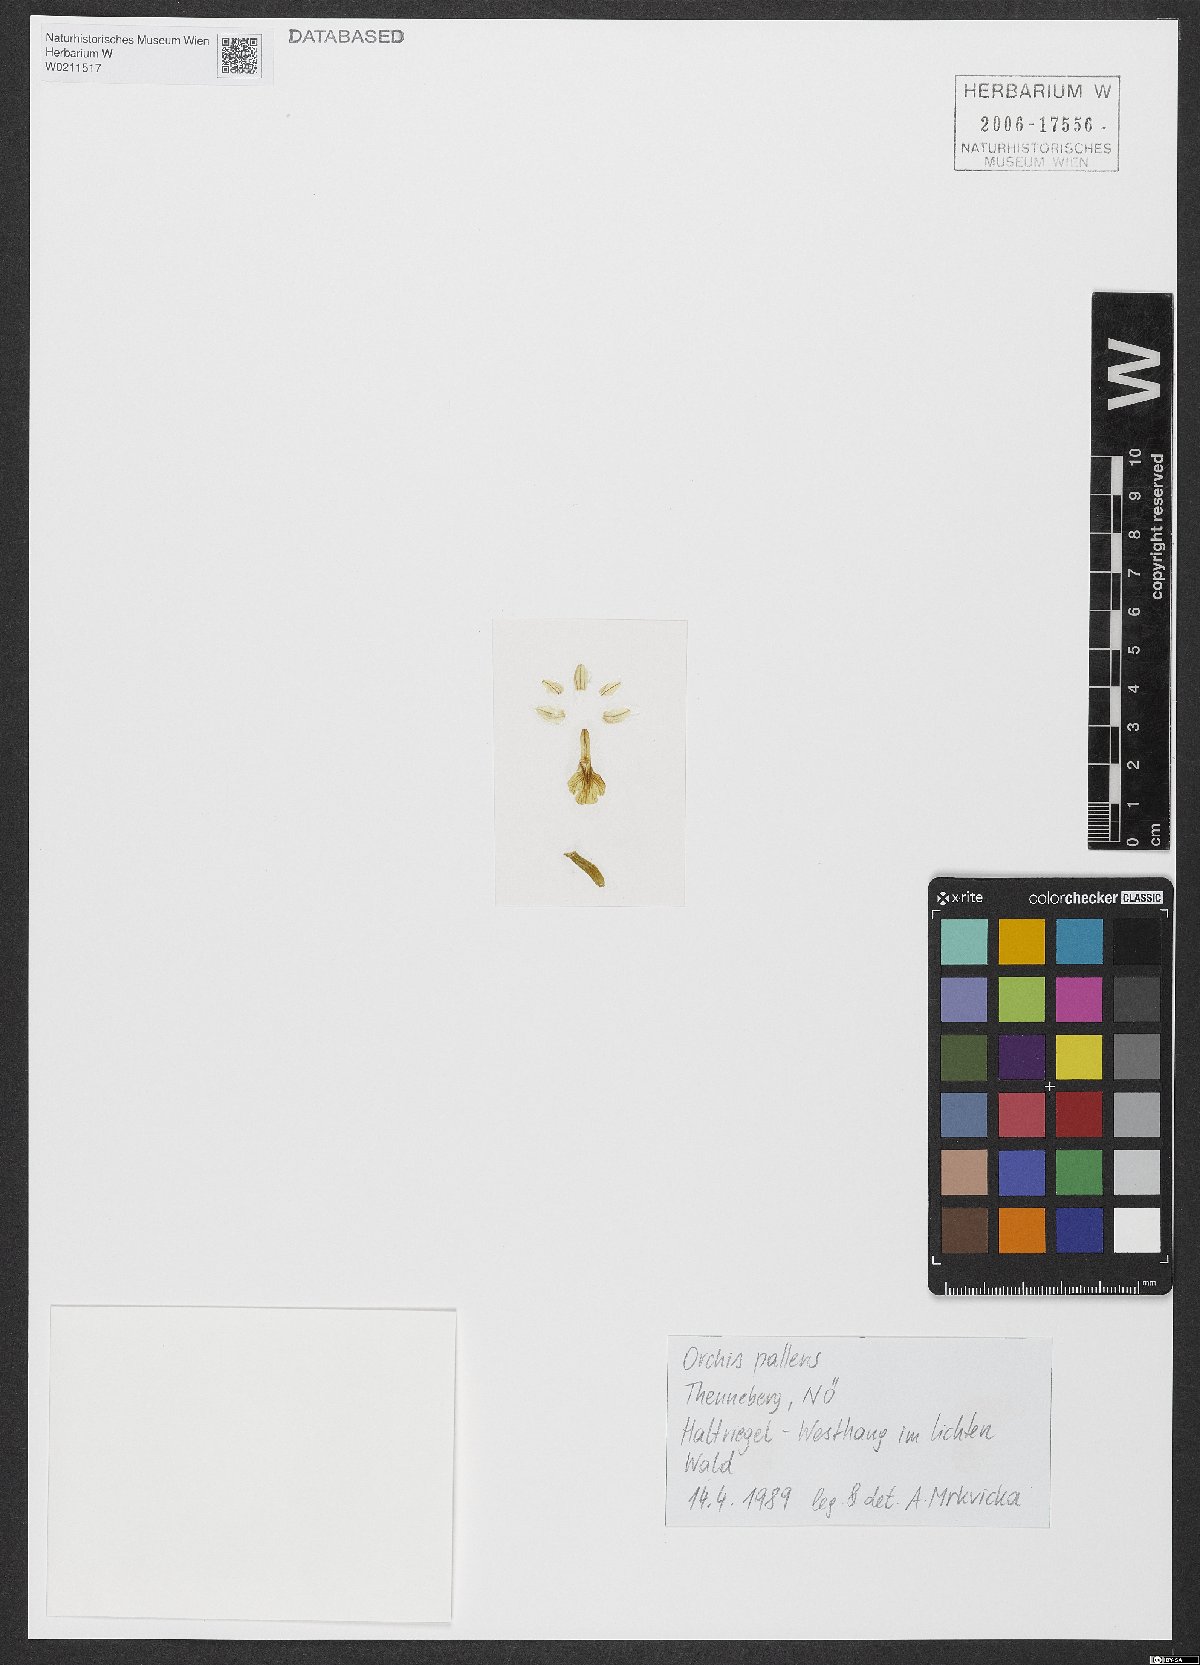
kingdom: Plantae
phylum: Tracheophyta
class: Liliopsida
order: Asparagales
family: Orchidaceae
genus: Orchis
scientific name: Orchis pallens
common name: Pale-flowered orchid
